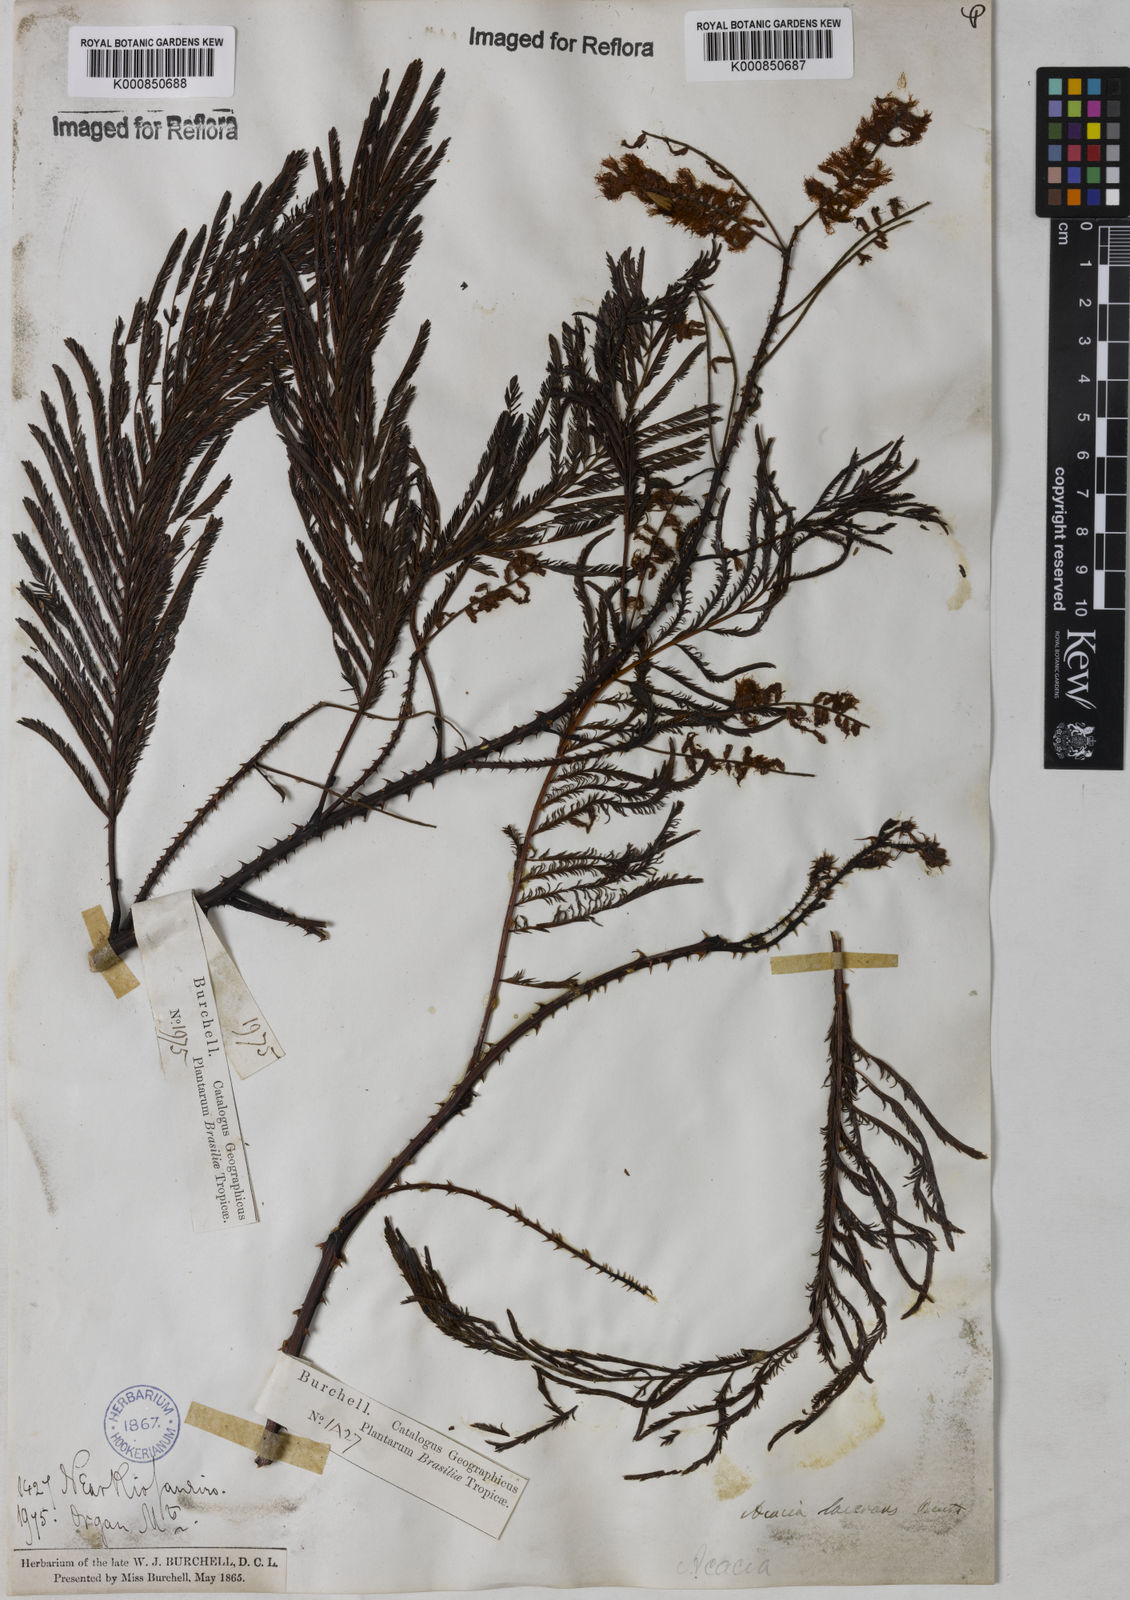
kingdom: Plantae
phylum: Tracheophyta
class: Magnoliopsida
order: Fabales
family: Fabaceae
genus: Senegalia
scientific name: Senegalia lacerans
